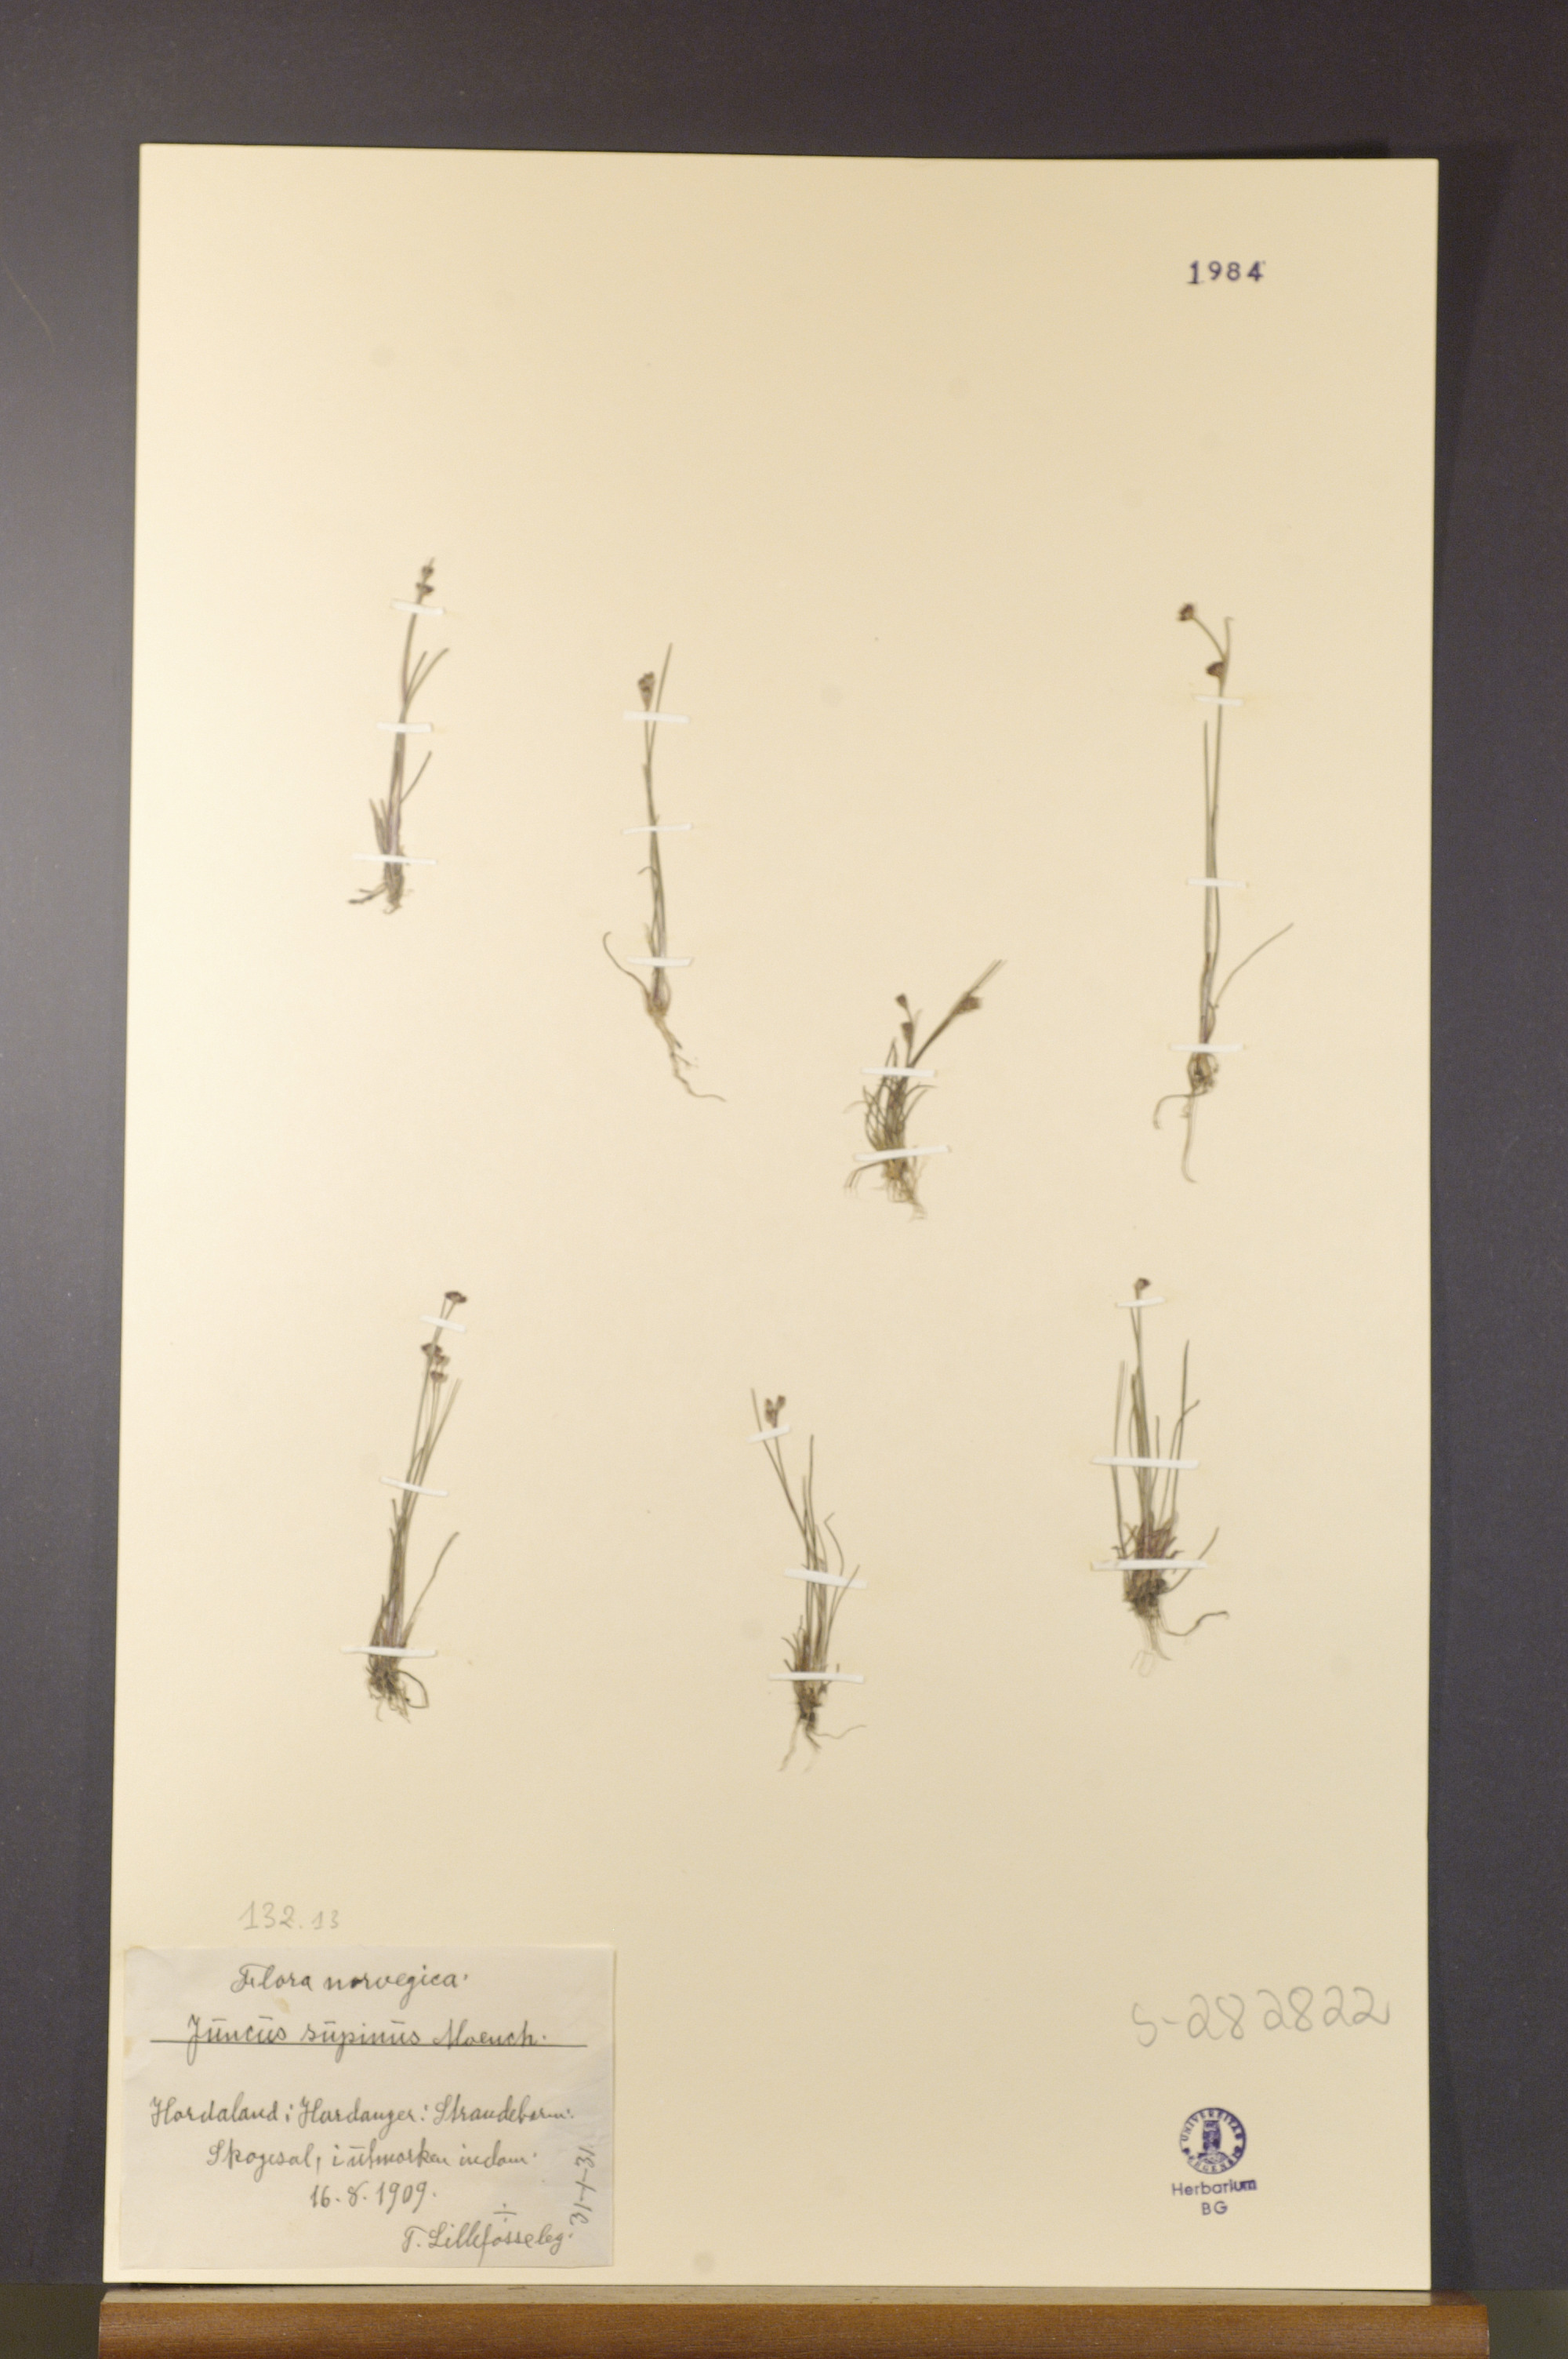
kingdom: Plantae
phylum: Tracheophyta
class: Liliopsida
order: Poales
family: Juncaceae
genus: Juncus
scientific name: Juncus bulbosus
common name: Bulbous rush
